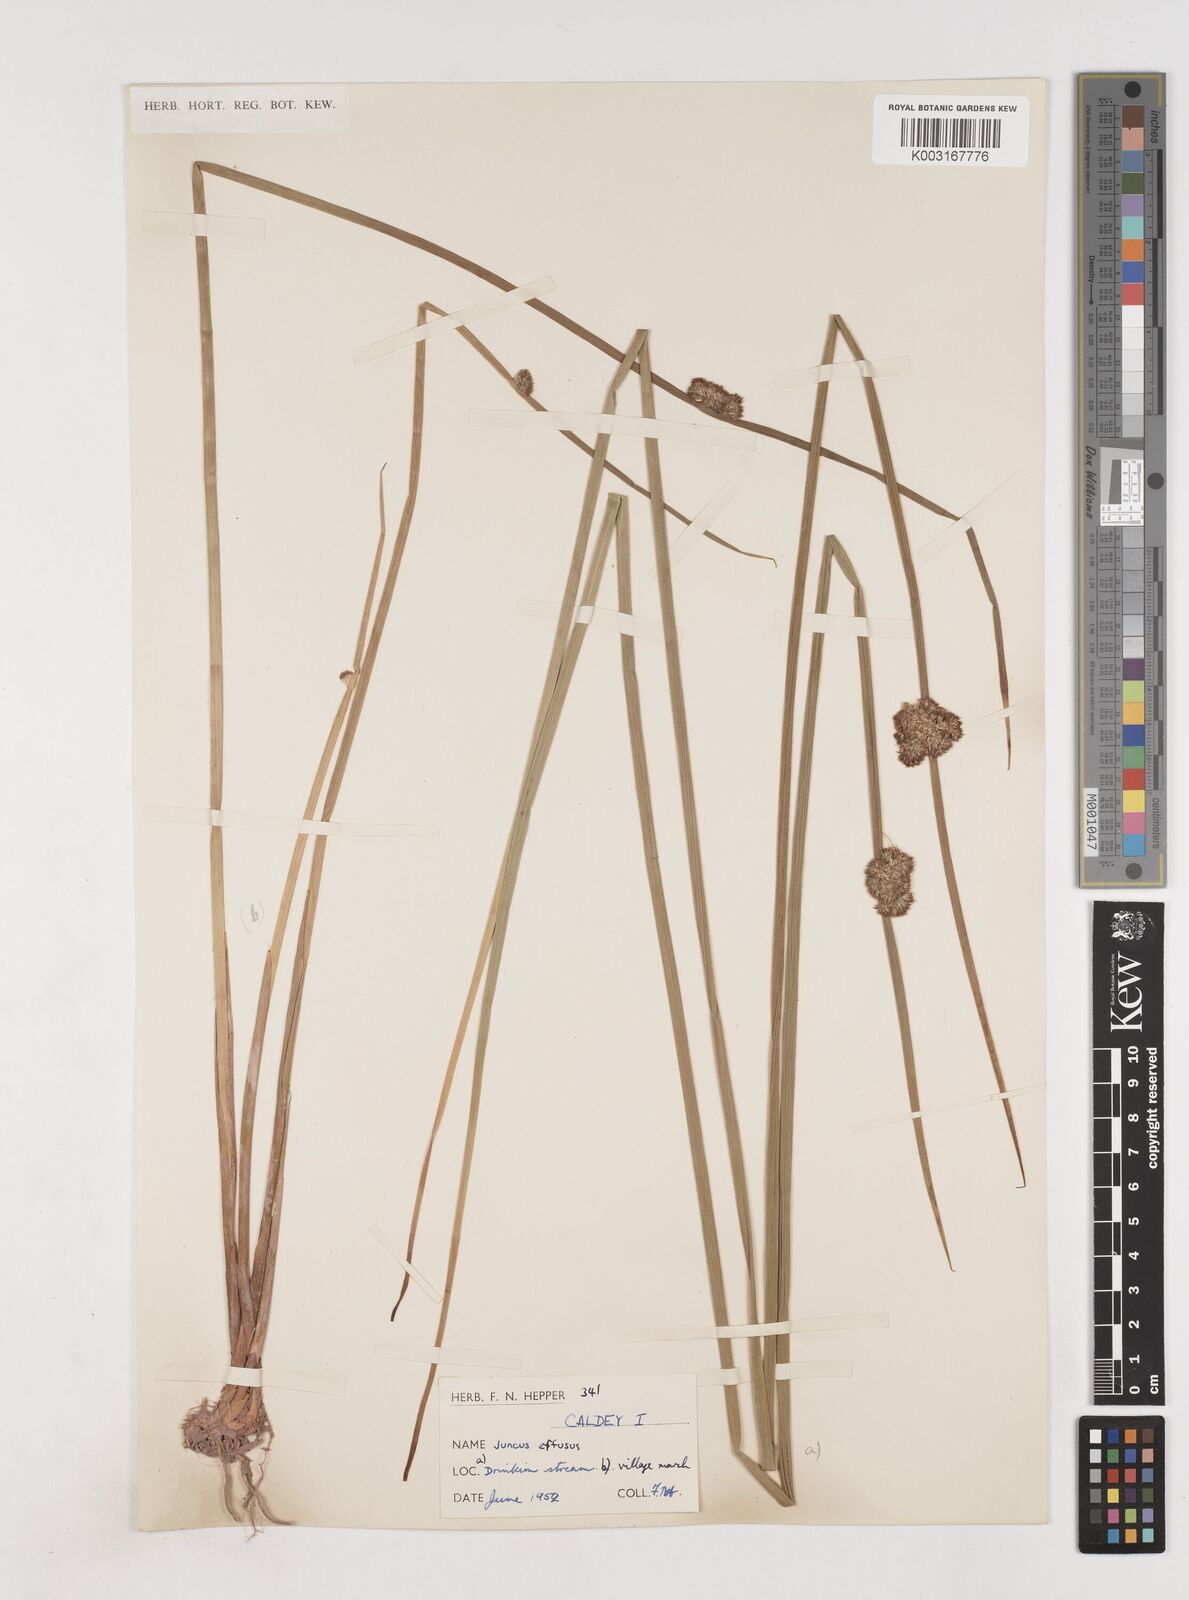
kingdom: Plantae
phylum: Tracheophyta
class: Liliopsida
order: Poales
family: Juncaceae
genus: Juncus
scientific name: Juncus effusus
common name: Soft rush
